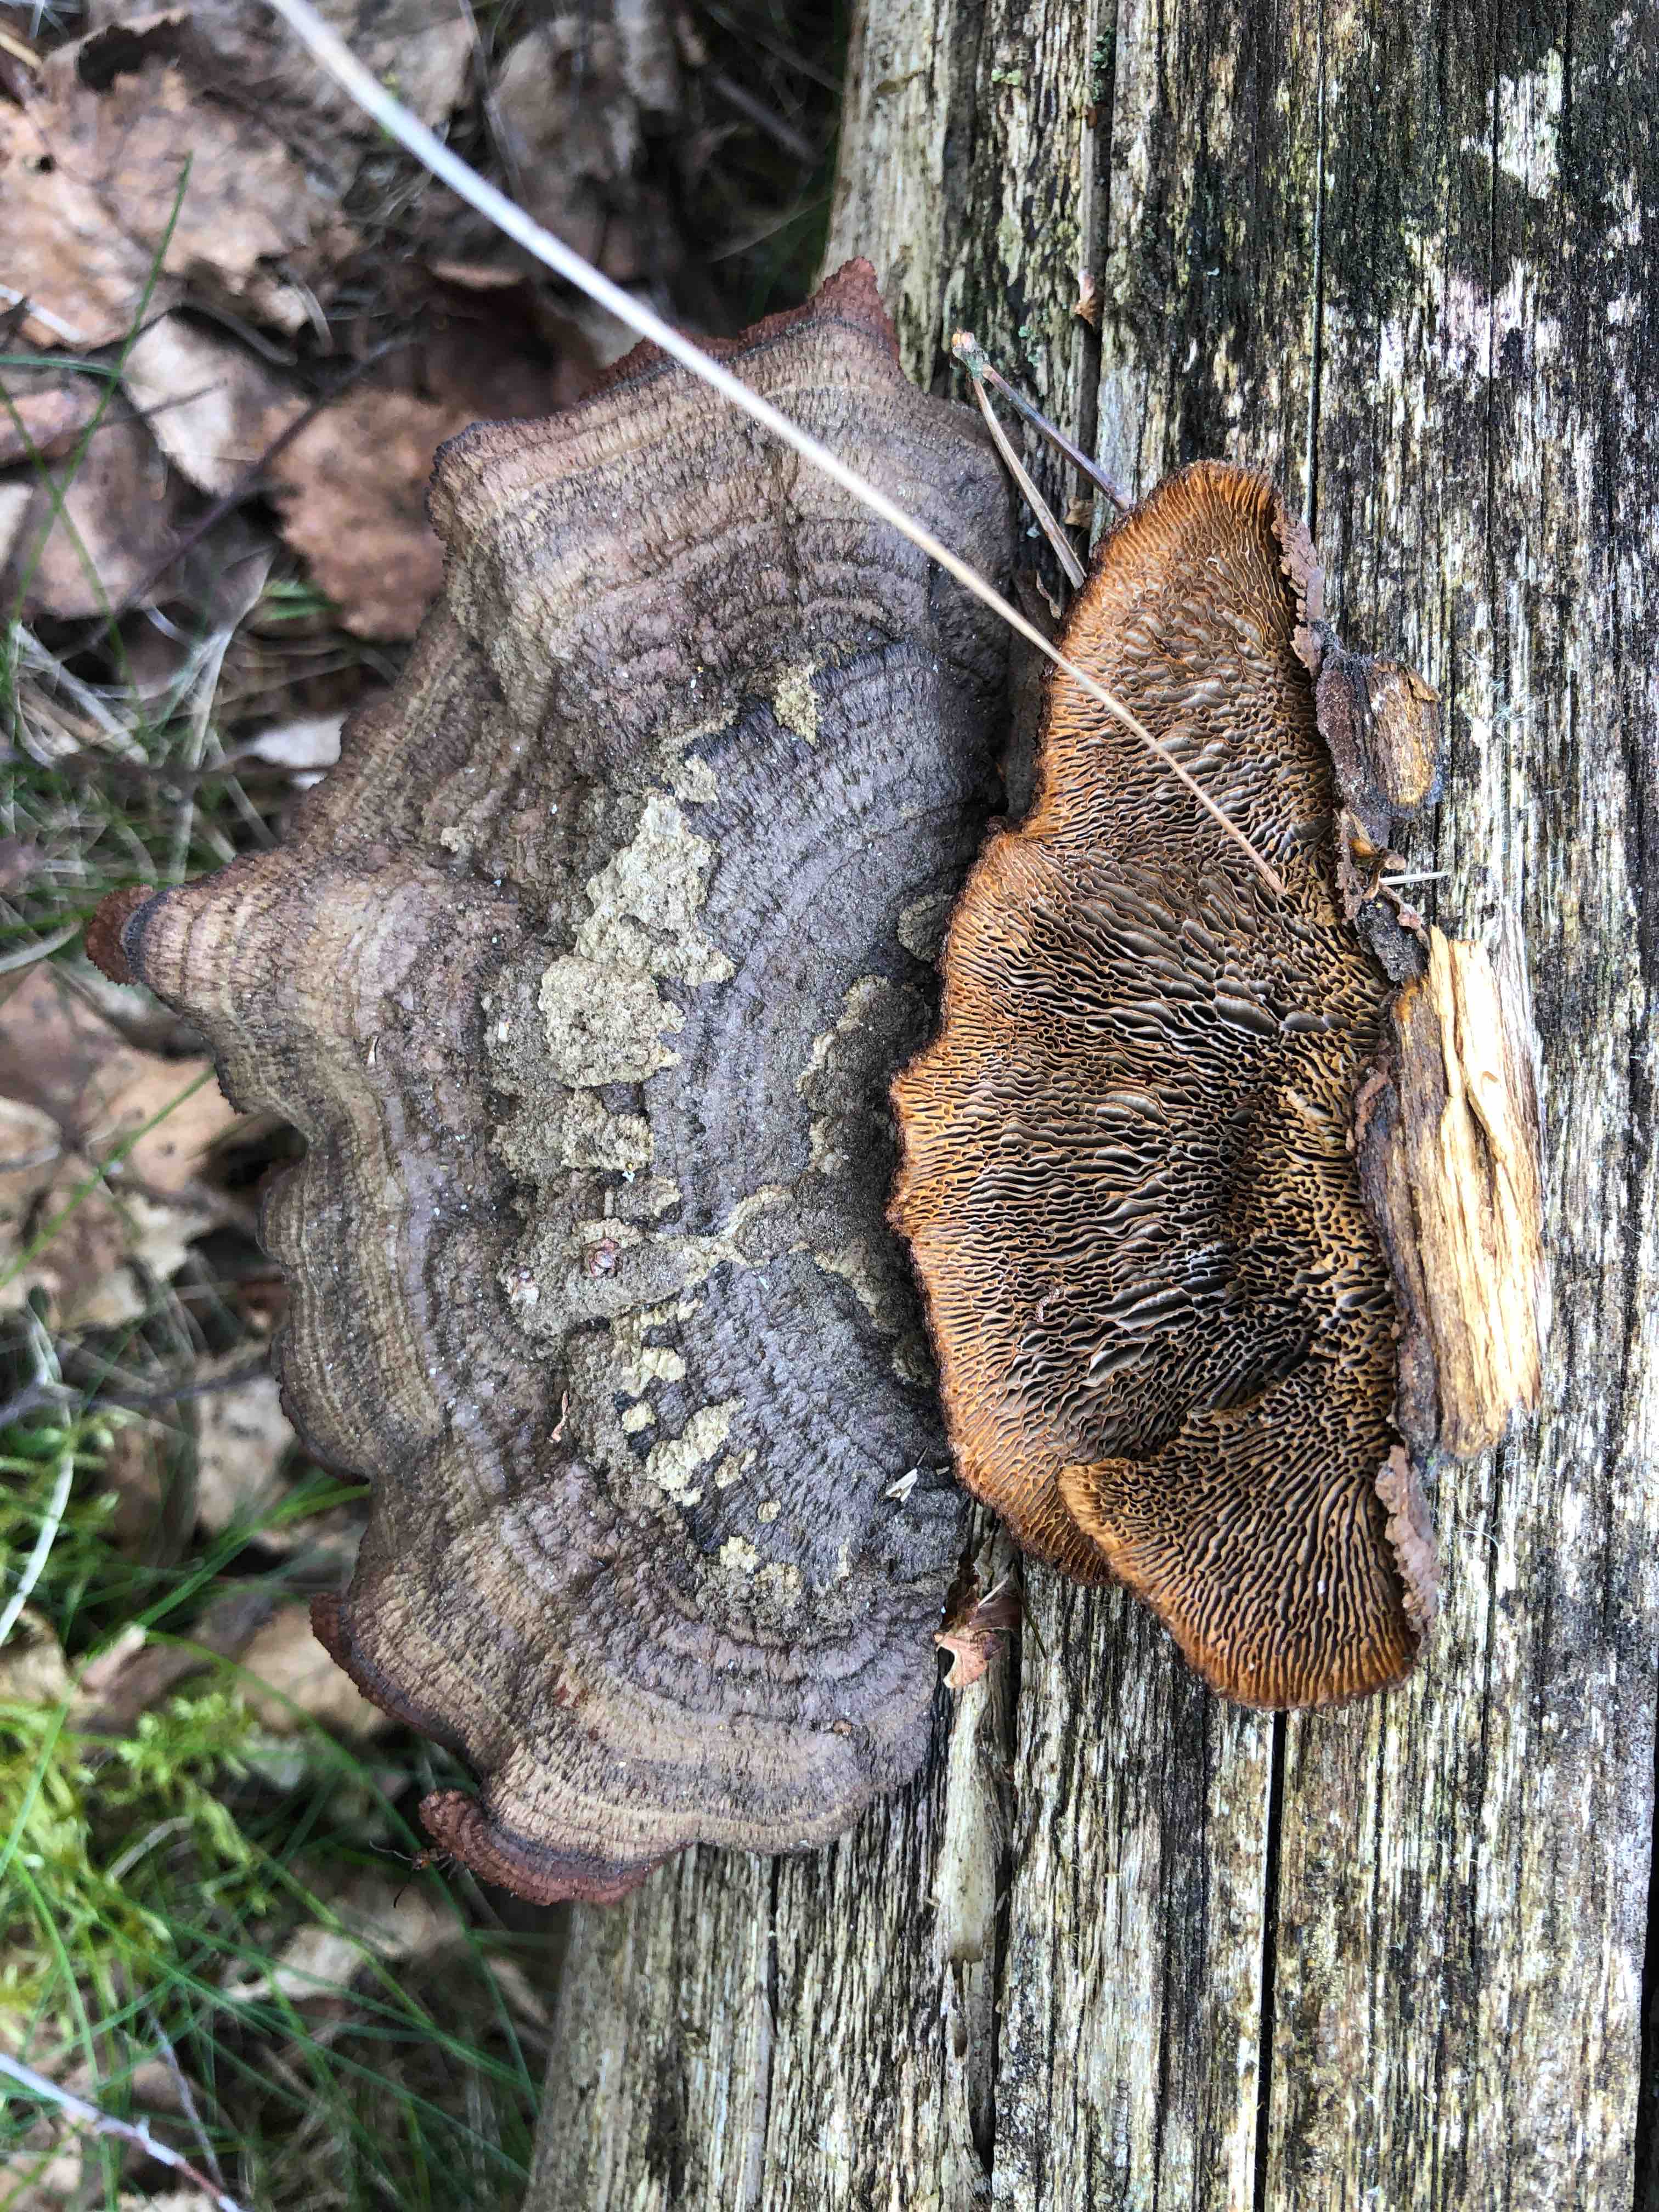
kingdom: Fungi
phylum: Basidiomycota
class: Agaricomycetes
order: Gloeophyllales
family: Gloeophyllaceae
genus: Gloeophyllum
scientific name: Gloeophyllum sepiarium
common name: fyrre-korkhat
